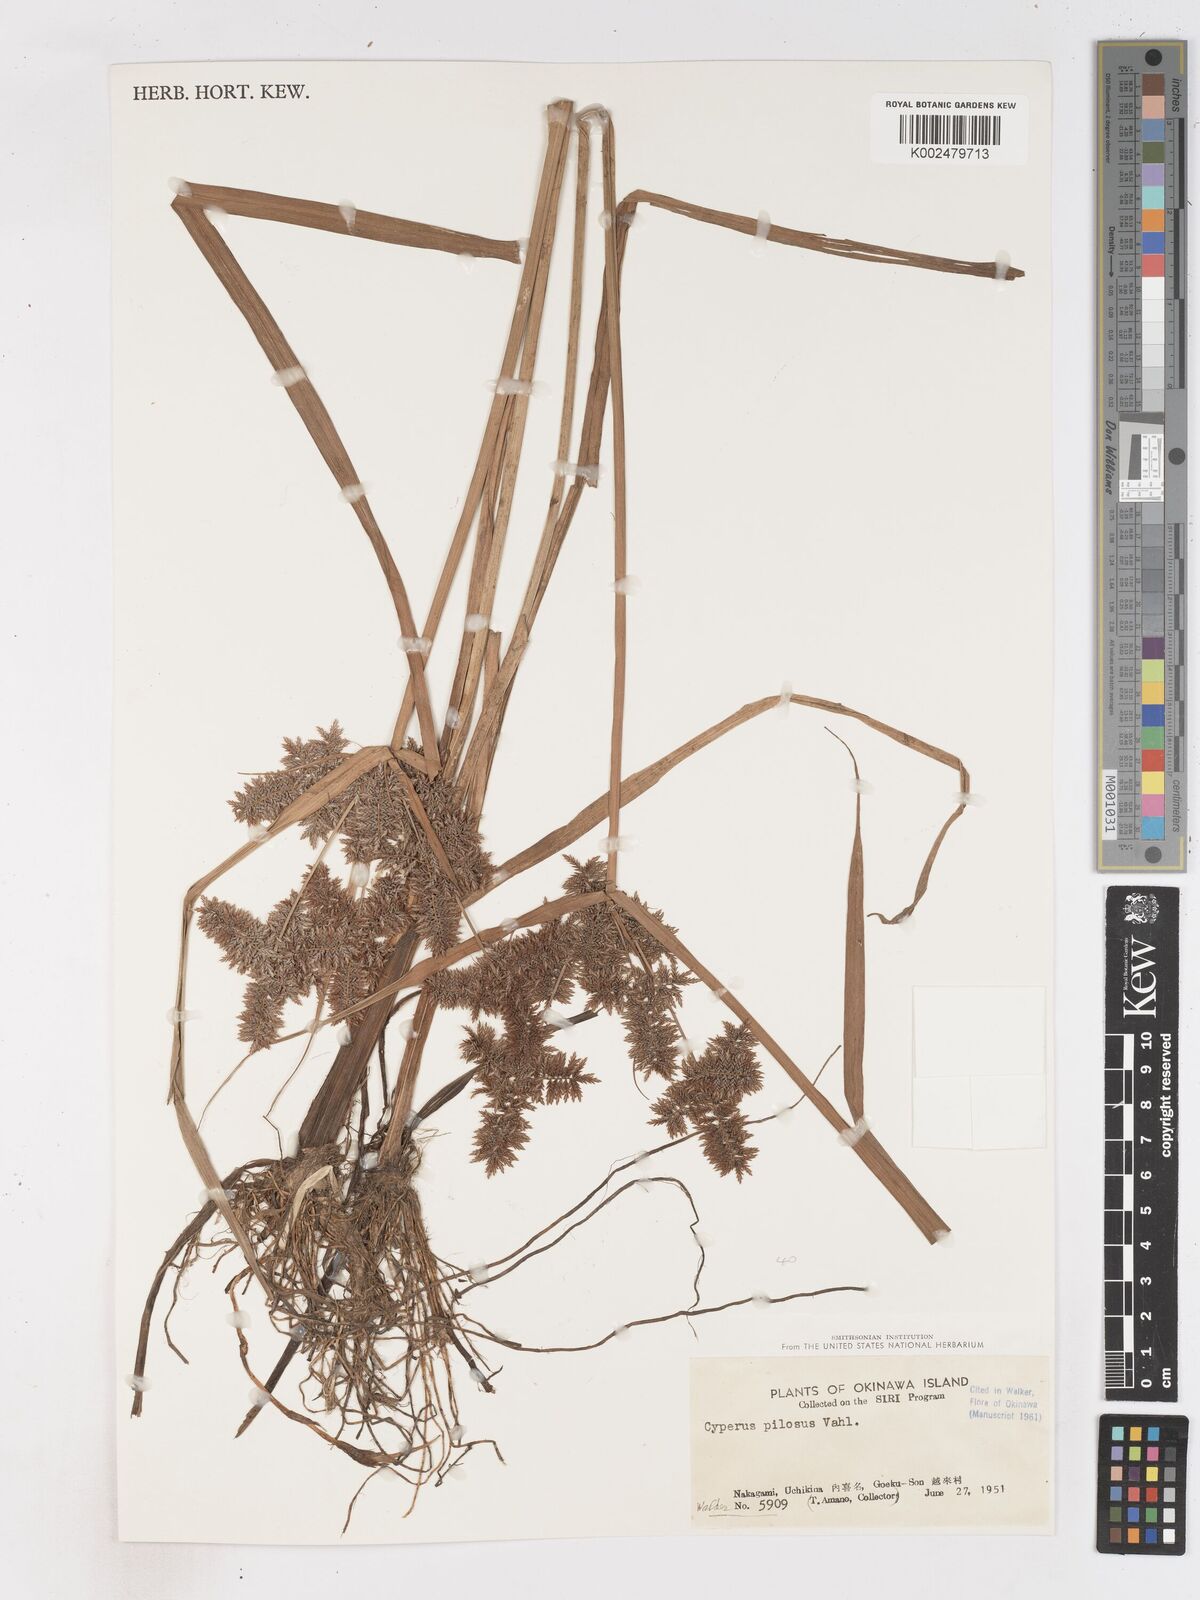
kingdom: Plantae
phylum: Tracheophyta
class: Liliopsida
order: Poales
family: Cyperaceae
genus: Cyperus
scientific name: Cyperus pilosus
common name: Fuzzy flatsedge
